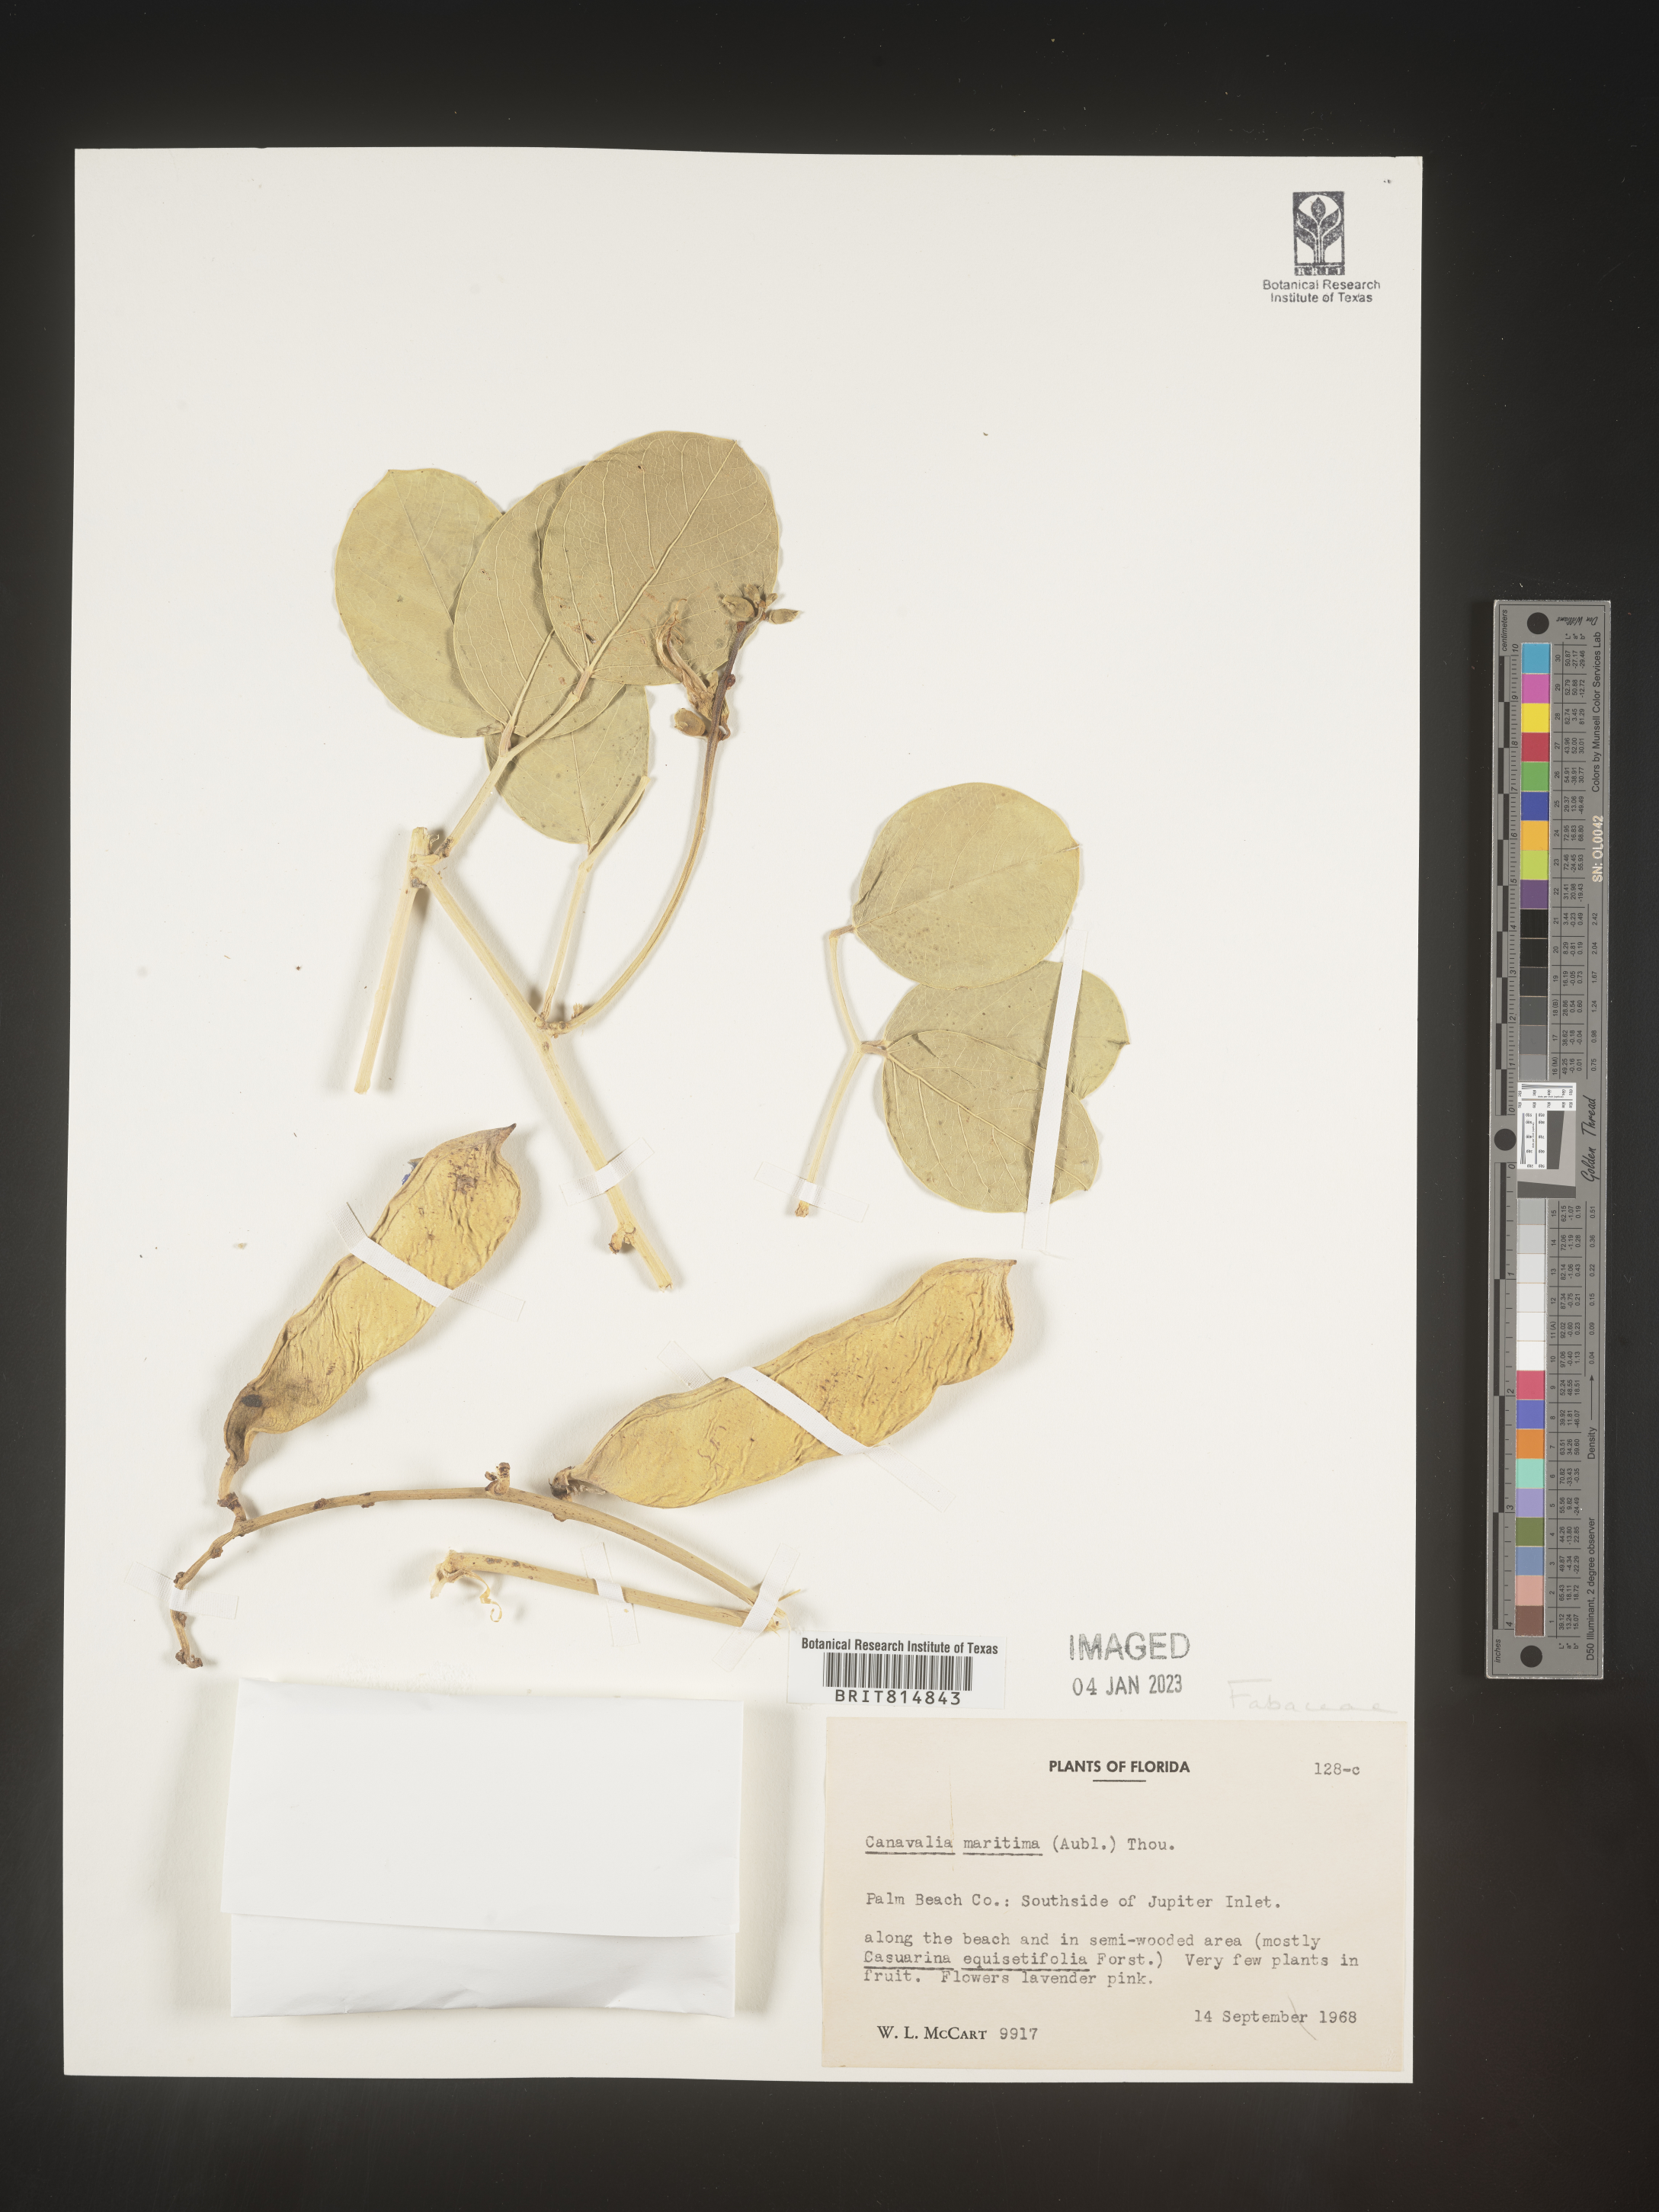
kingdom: Plantae
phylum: Tracheophyta
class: Magnoliopsida
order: Fabales
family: Fabaceae
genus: Canavalia
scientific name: Canavalia
